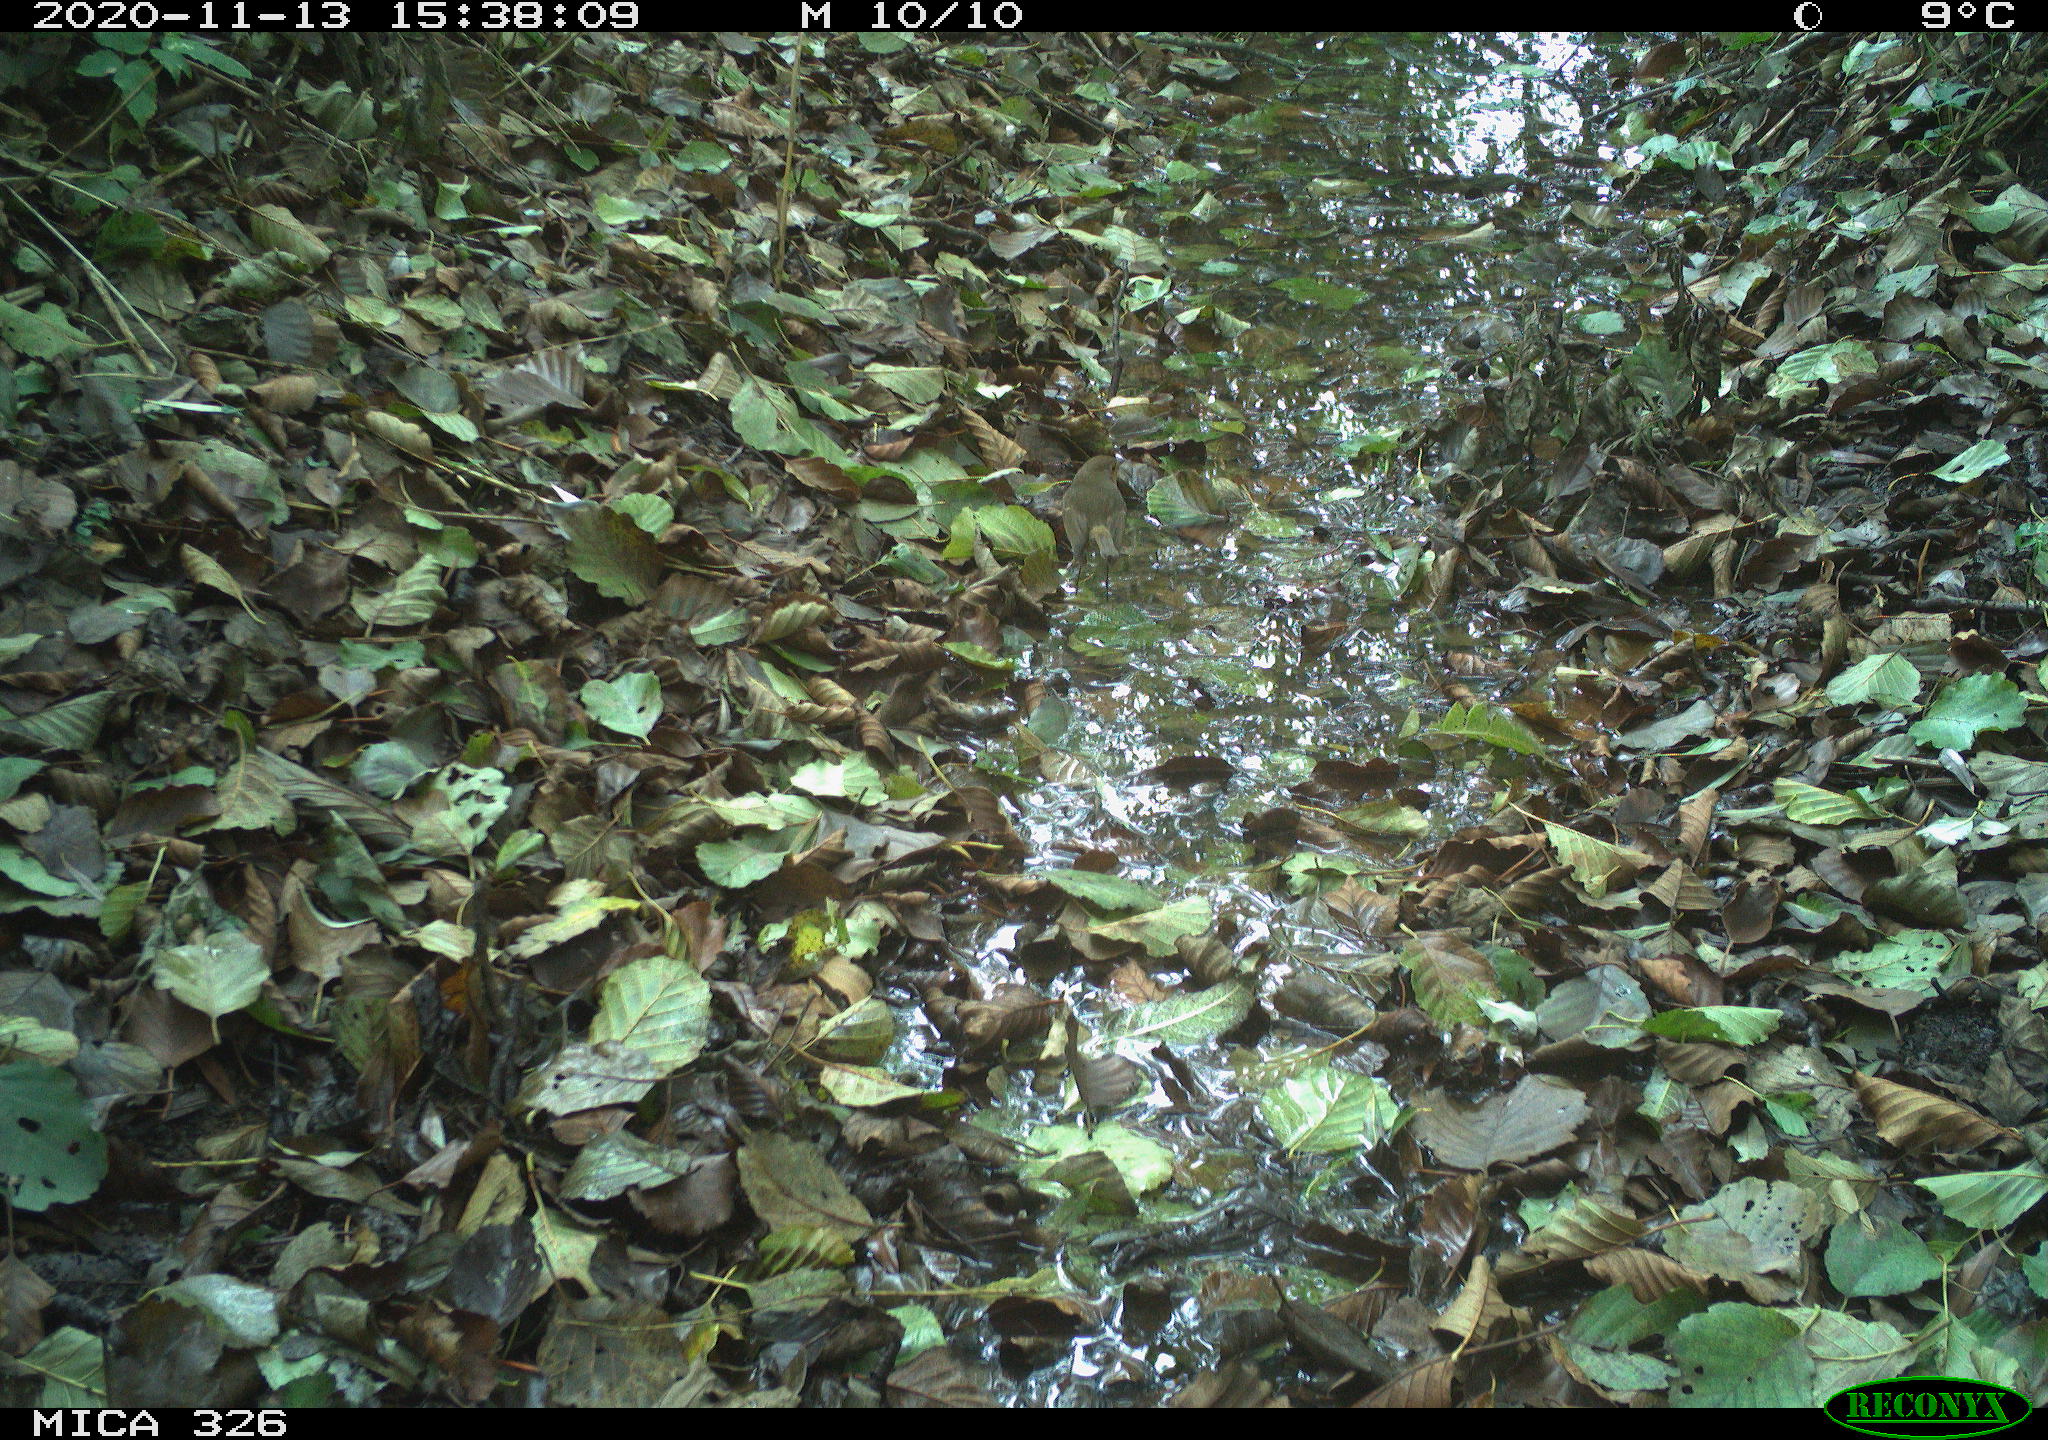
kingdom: Animalia
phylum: Chordata
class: Aves
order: Passeriformes
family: Muscicapidae
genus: Erithacus
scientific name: Erithacus rubecula
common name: European robin
